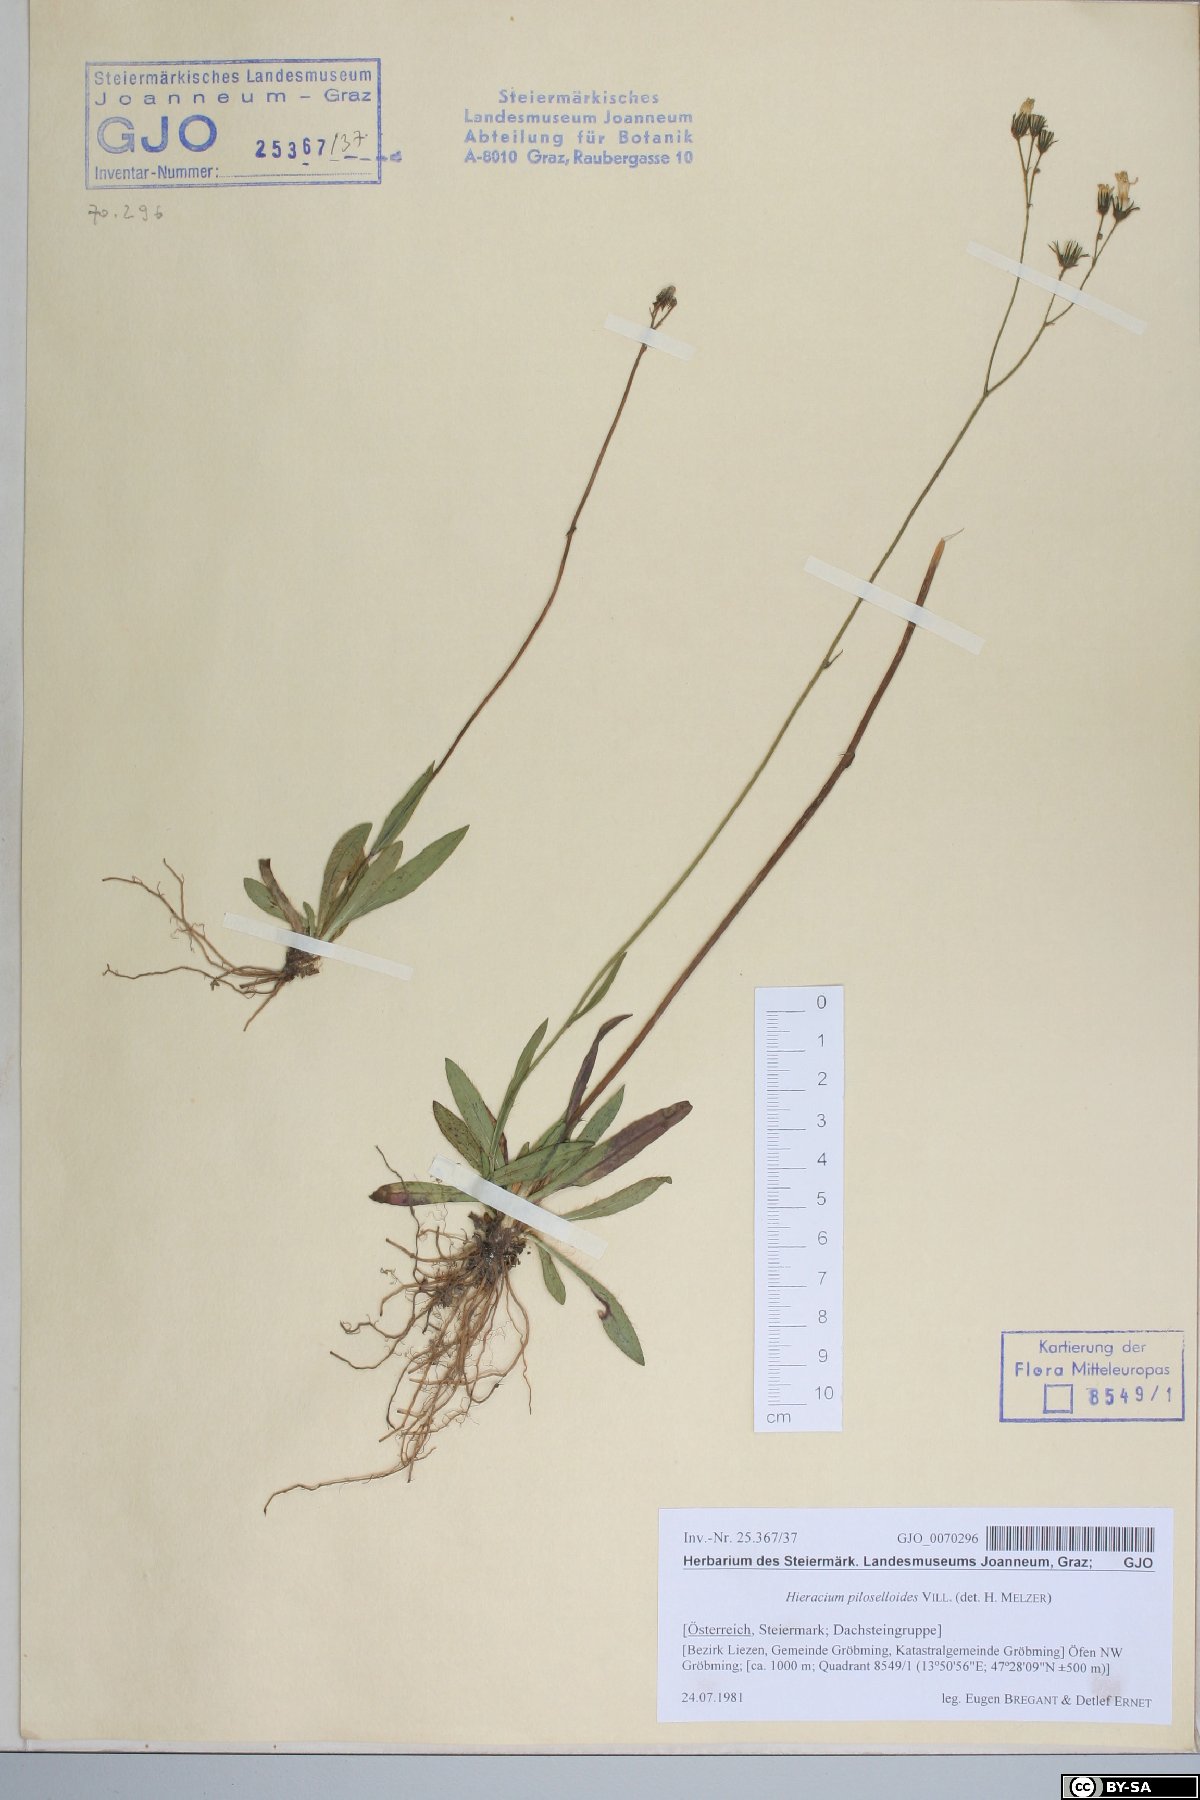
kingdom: Plantae
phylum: Tracheophyta
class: Magnoliopsida
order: Asterales
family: Asteraceae
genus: Pilosella
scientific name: Pilosella piloselloides
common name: Glaucous king-devil
